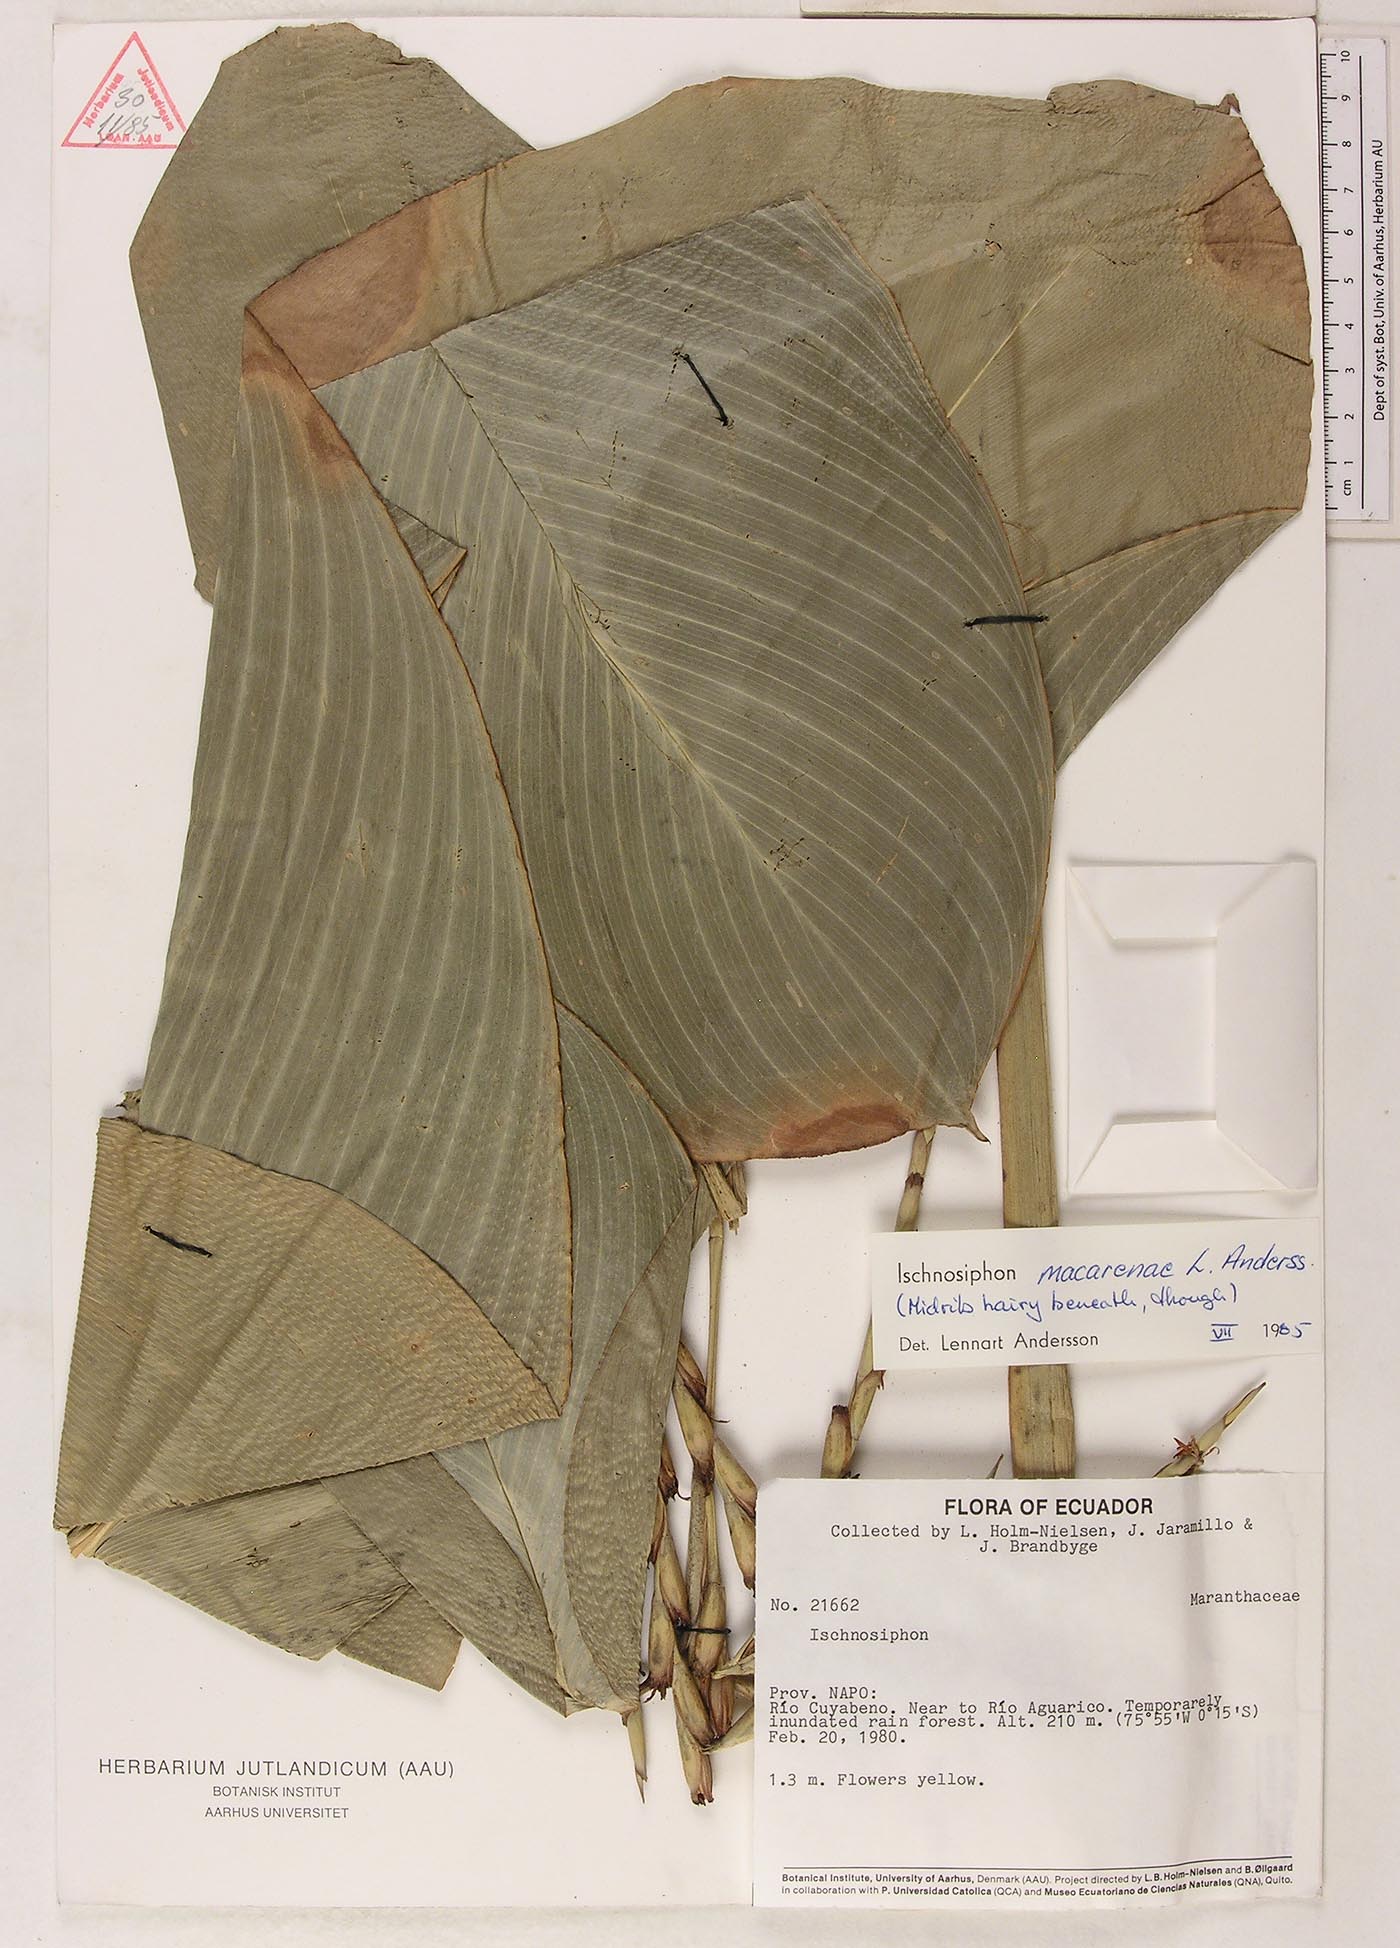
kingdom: Plantae
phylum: Tracheophyta
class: Liliopsida
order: Zingiberales
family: Marantaceae
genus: Ischnosiphon
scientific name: Ischnosiphon macarenae
